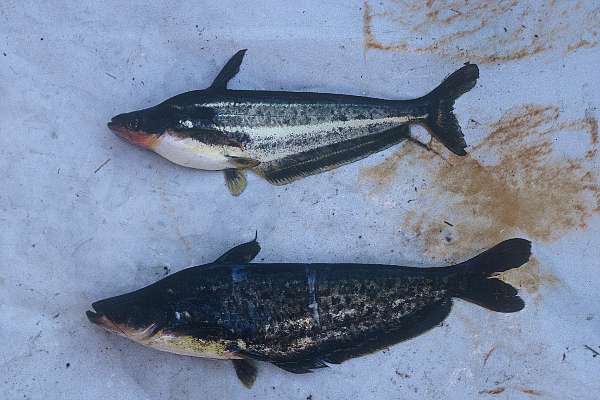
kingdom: Animalia
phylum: Chordata
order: Siluriformes
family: Schilbeidae
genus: Schilbe
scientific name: Schilbe intermedius
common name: Silver catfish
